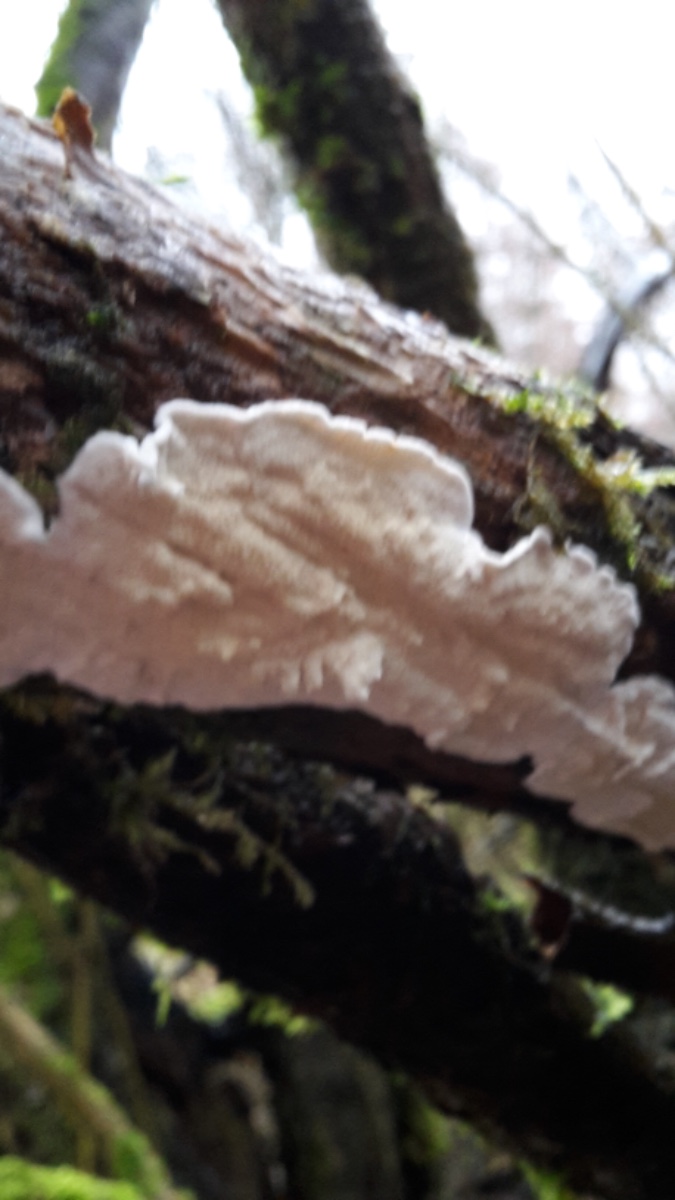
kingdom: Fungi
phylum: Basidiomycota
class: Agaricomycetes
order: Polyporales
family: Irpicaceae
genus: Byssomerulius
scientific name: Byssomerulius corium
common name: læder-åresvamp
